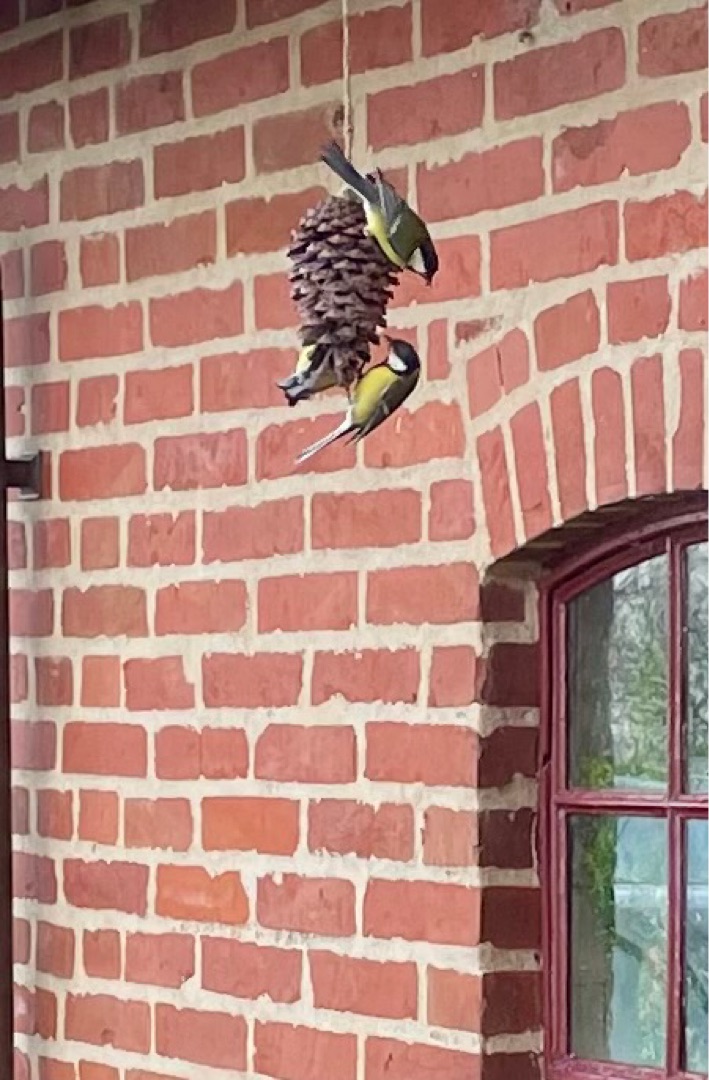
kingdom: Animalia
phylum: Chordata
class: Aves
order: Passeriformes
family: Paridae
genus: Parus
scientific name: Parus major
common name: Musvit
